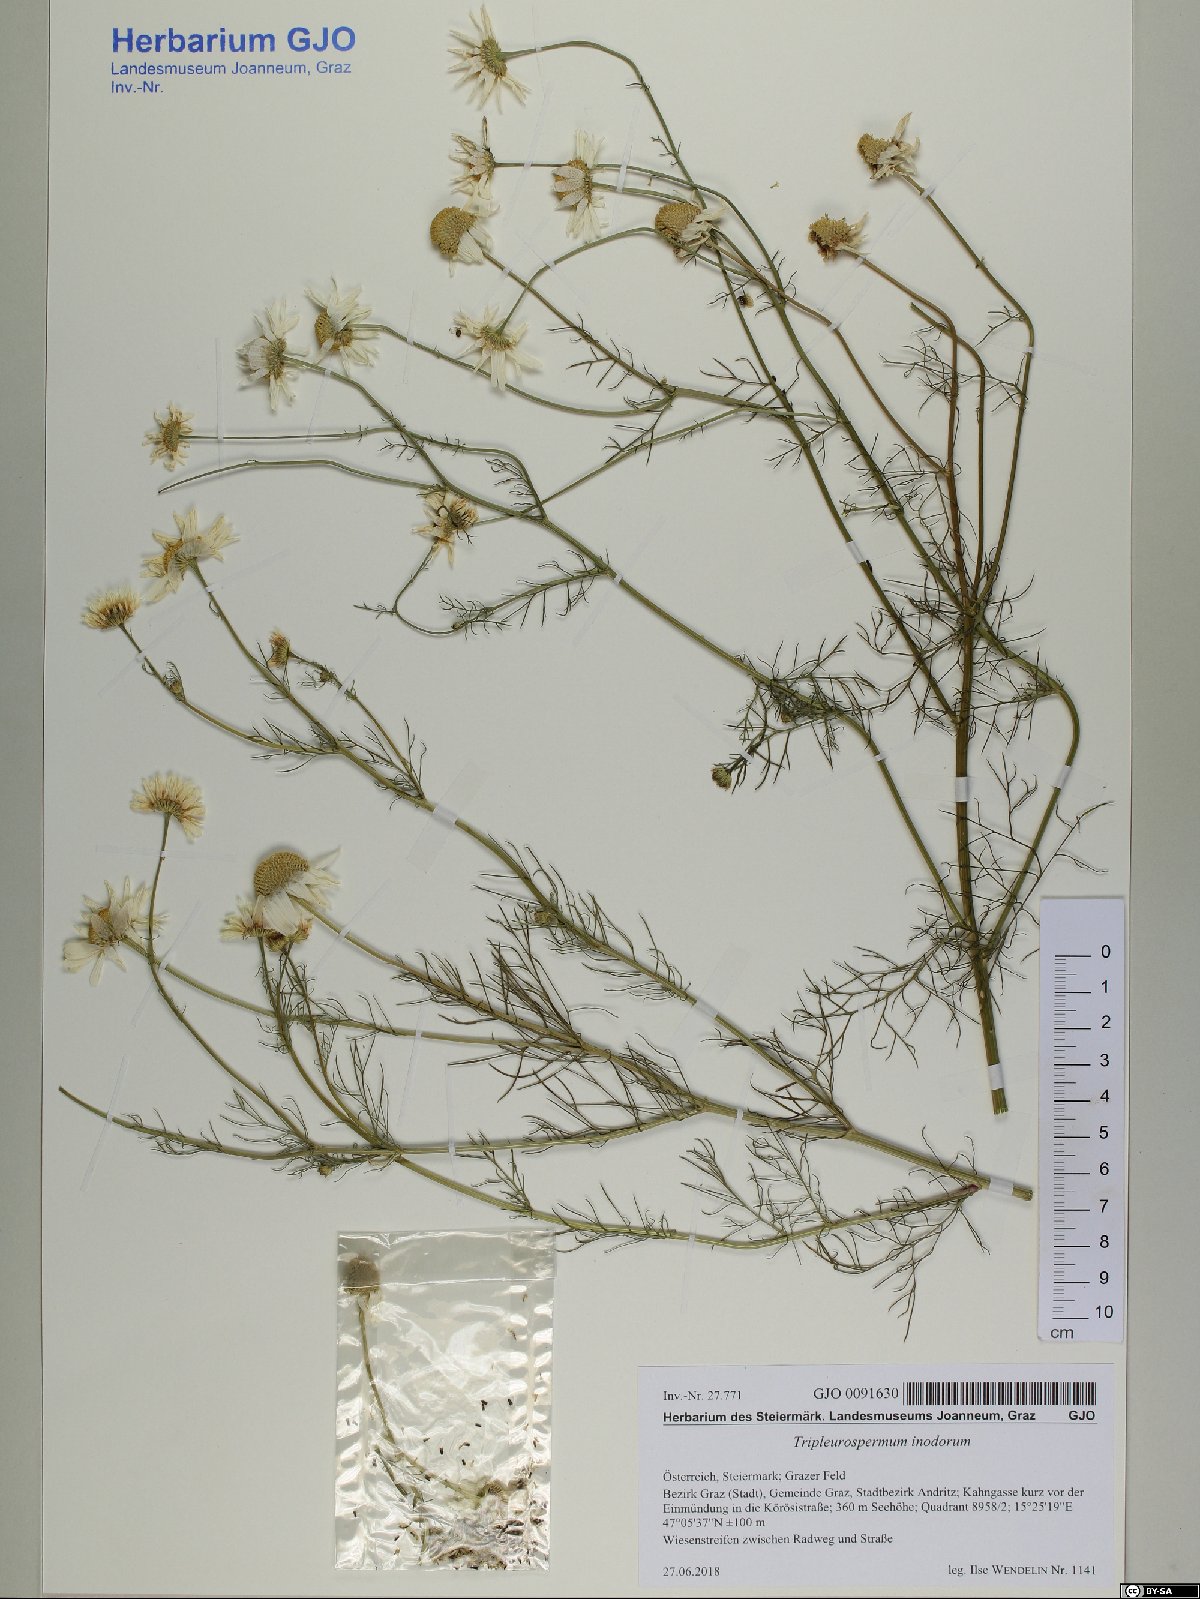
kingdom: Plantae
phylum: Tracheophyta
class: Magnoliopsida
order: Asterales
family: Asteraceae
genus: Tripleurospermum
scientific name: Tripleurospermum inodorum
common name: Scentless mayweed
